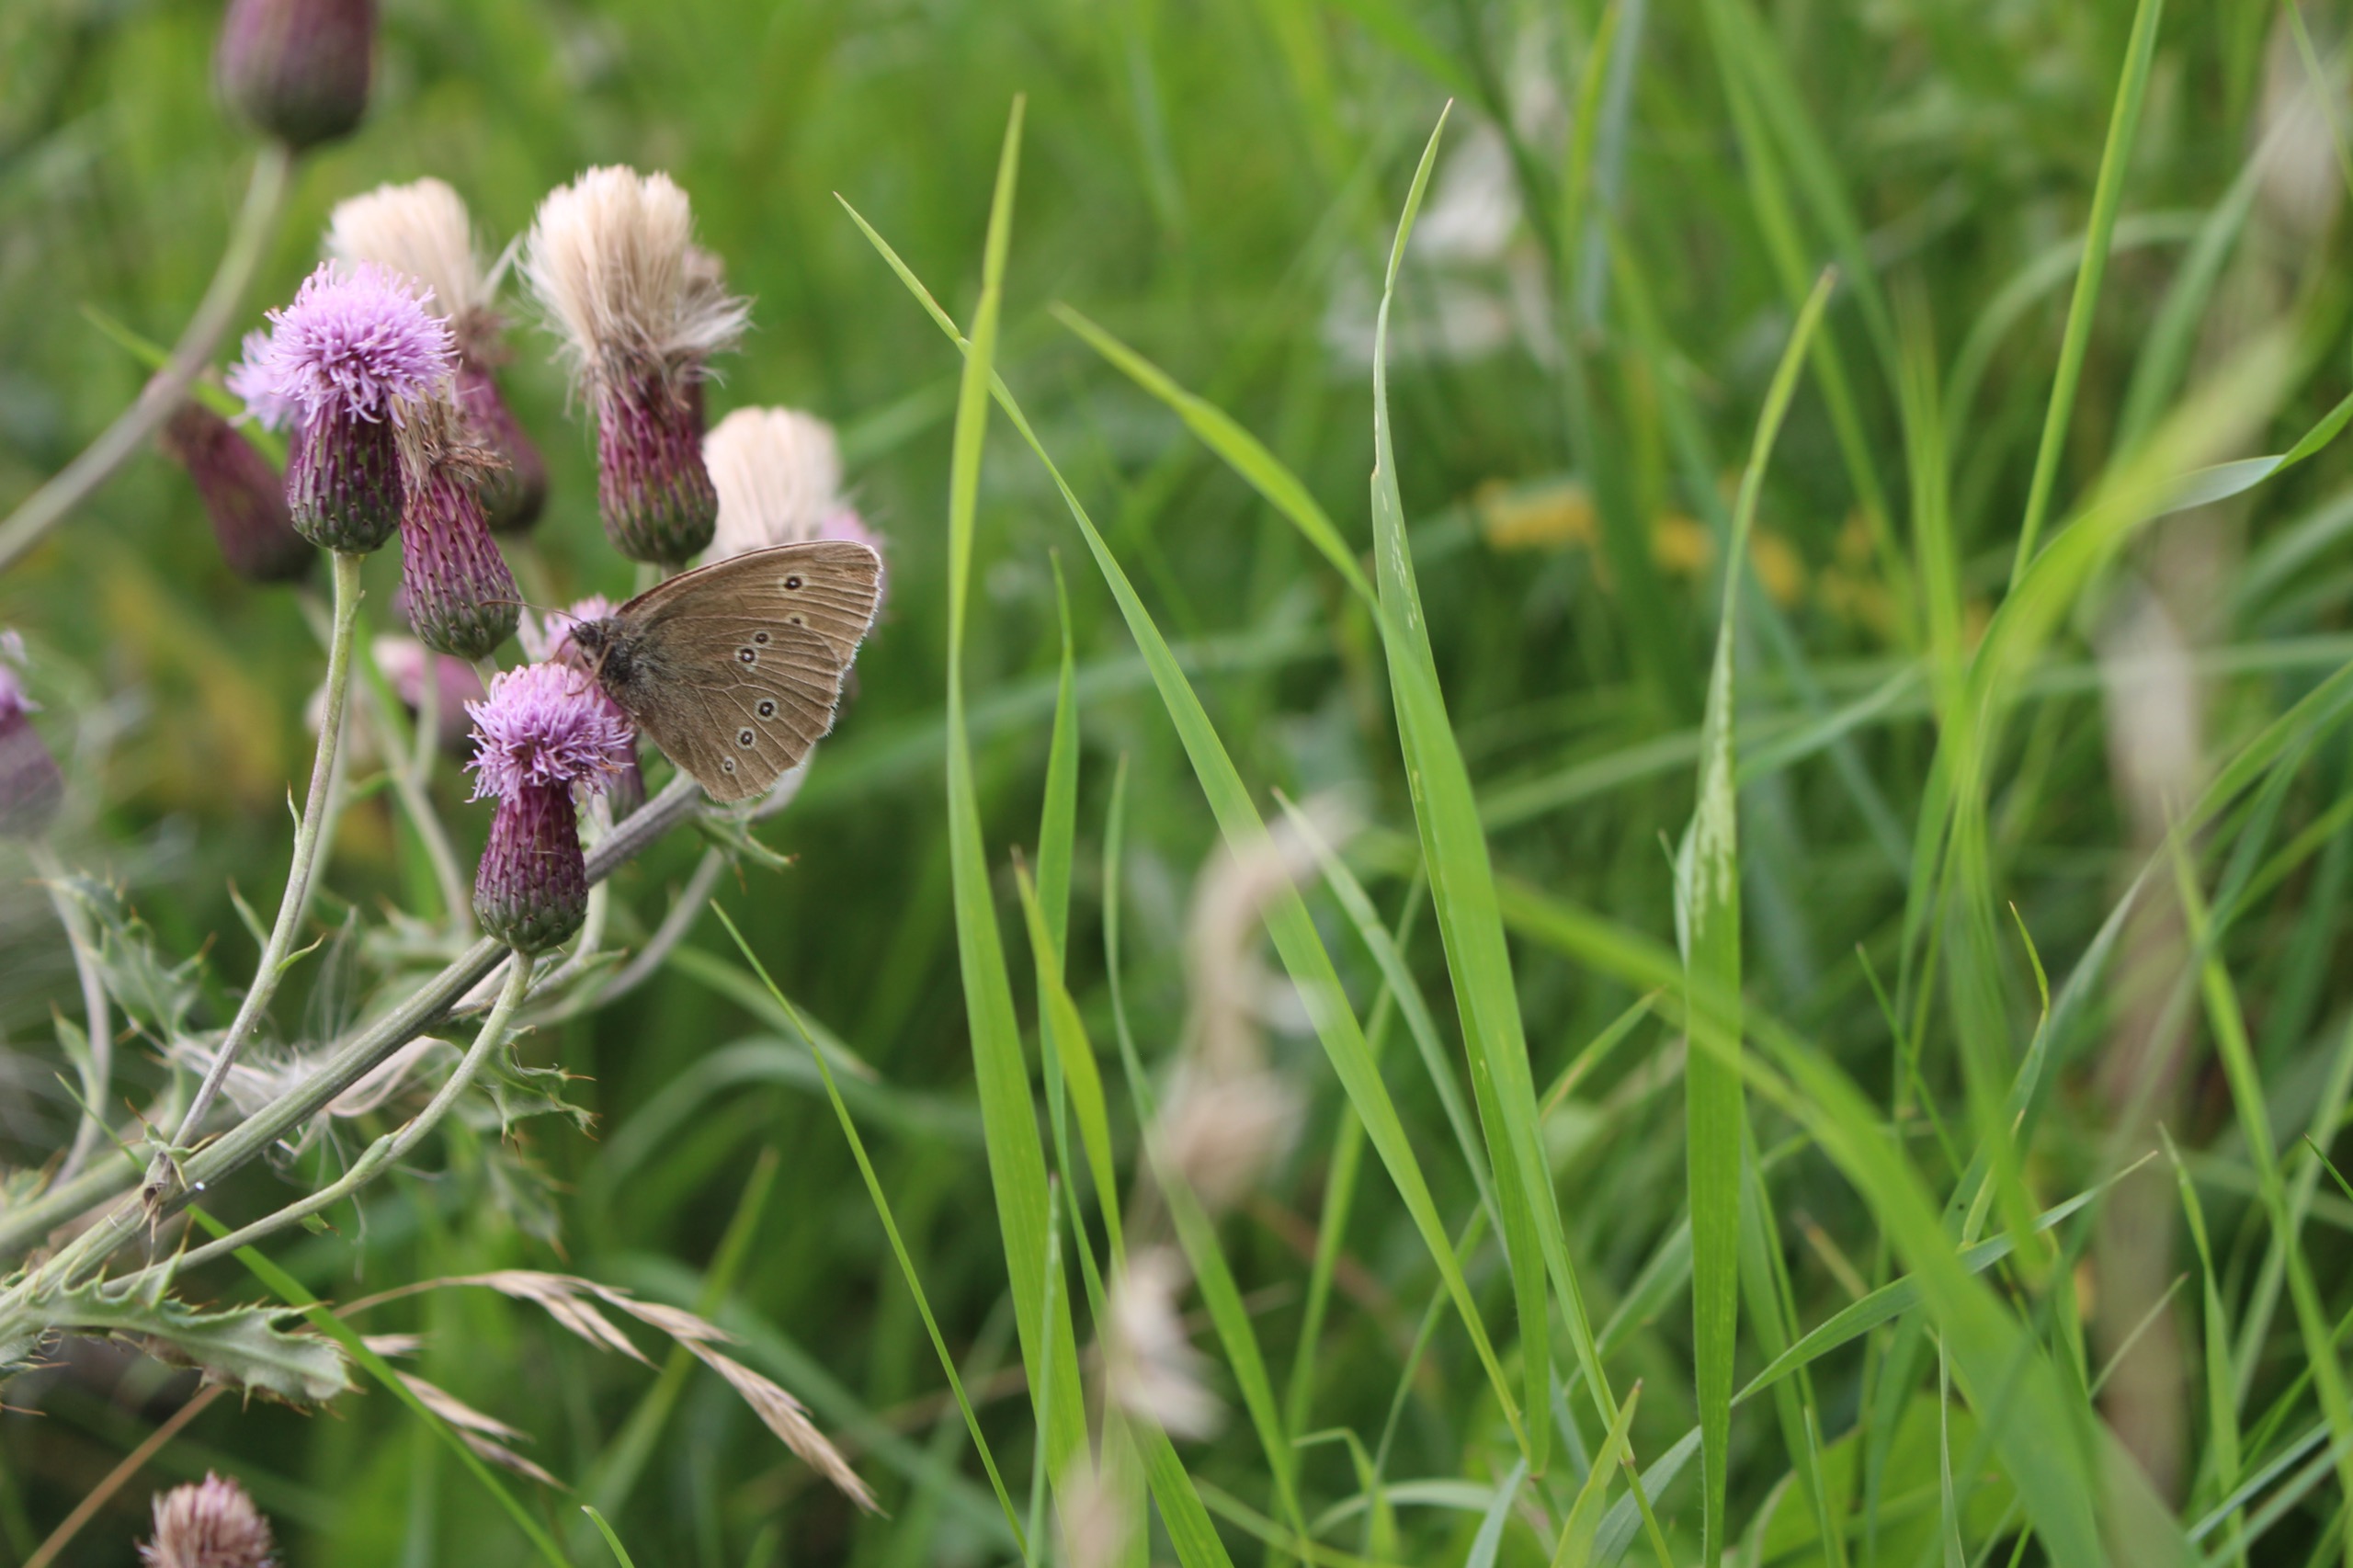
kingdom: Animalia
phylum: Arthropoda
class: Insecta
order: Lepidoptera
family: Nymphalidae
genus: Aphantopus
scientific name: Aphantopus hyperantus
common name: Engrandøje
